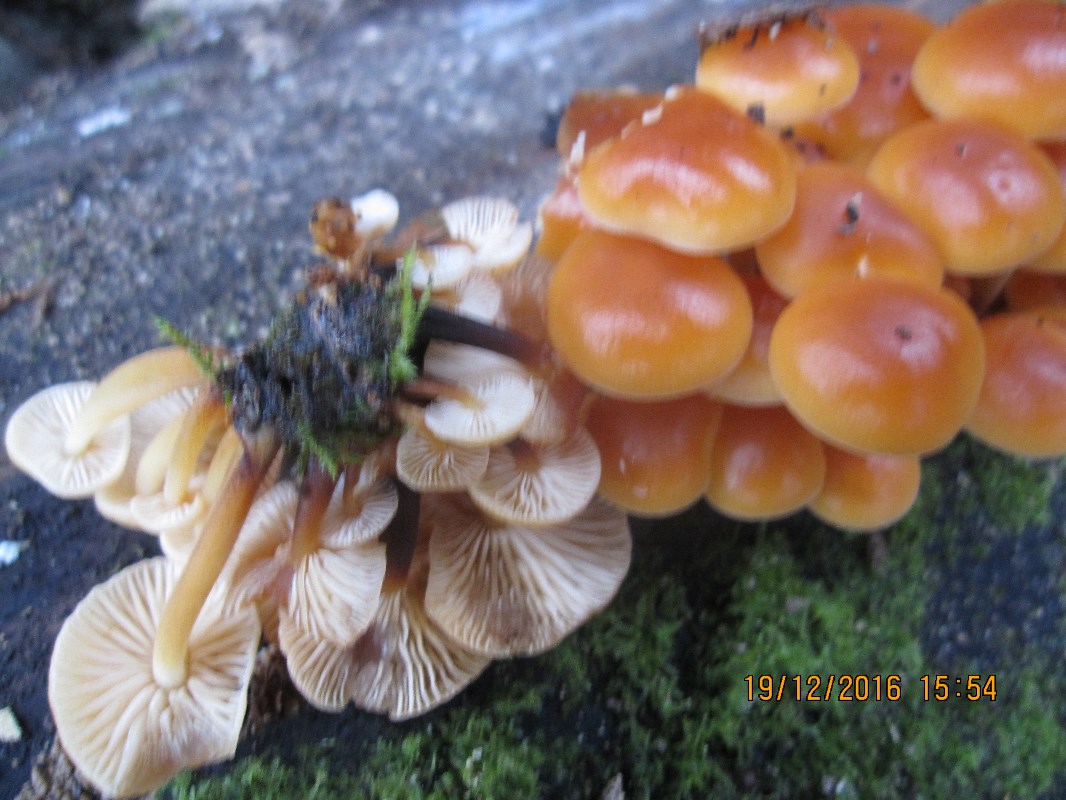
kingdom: Fungi
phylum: Basidiomycota
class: Agaricomycetes
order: Agaricales
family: Physalacriaceae
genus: Flammulina
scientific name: Flammulina velutipes
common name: gul fløjlsfod
